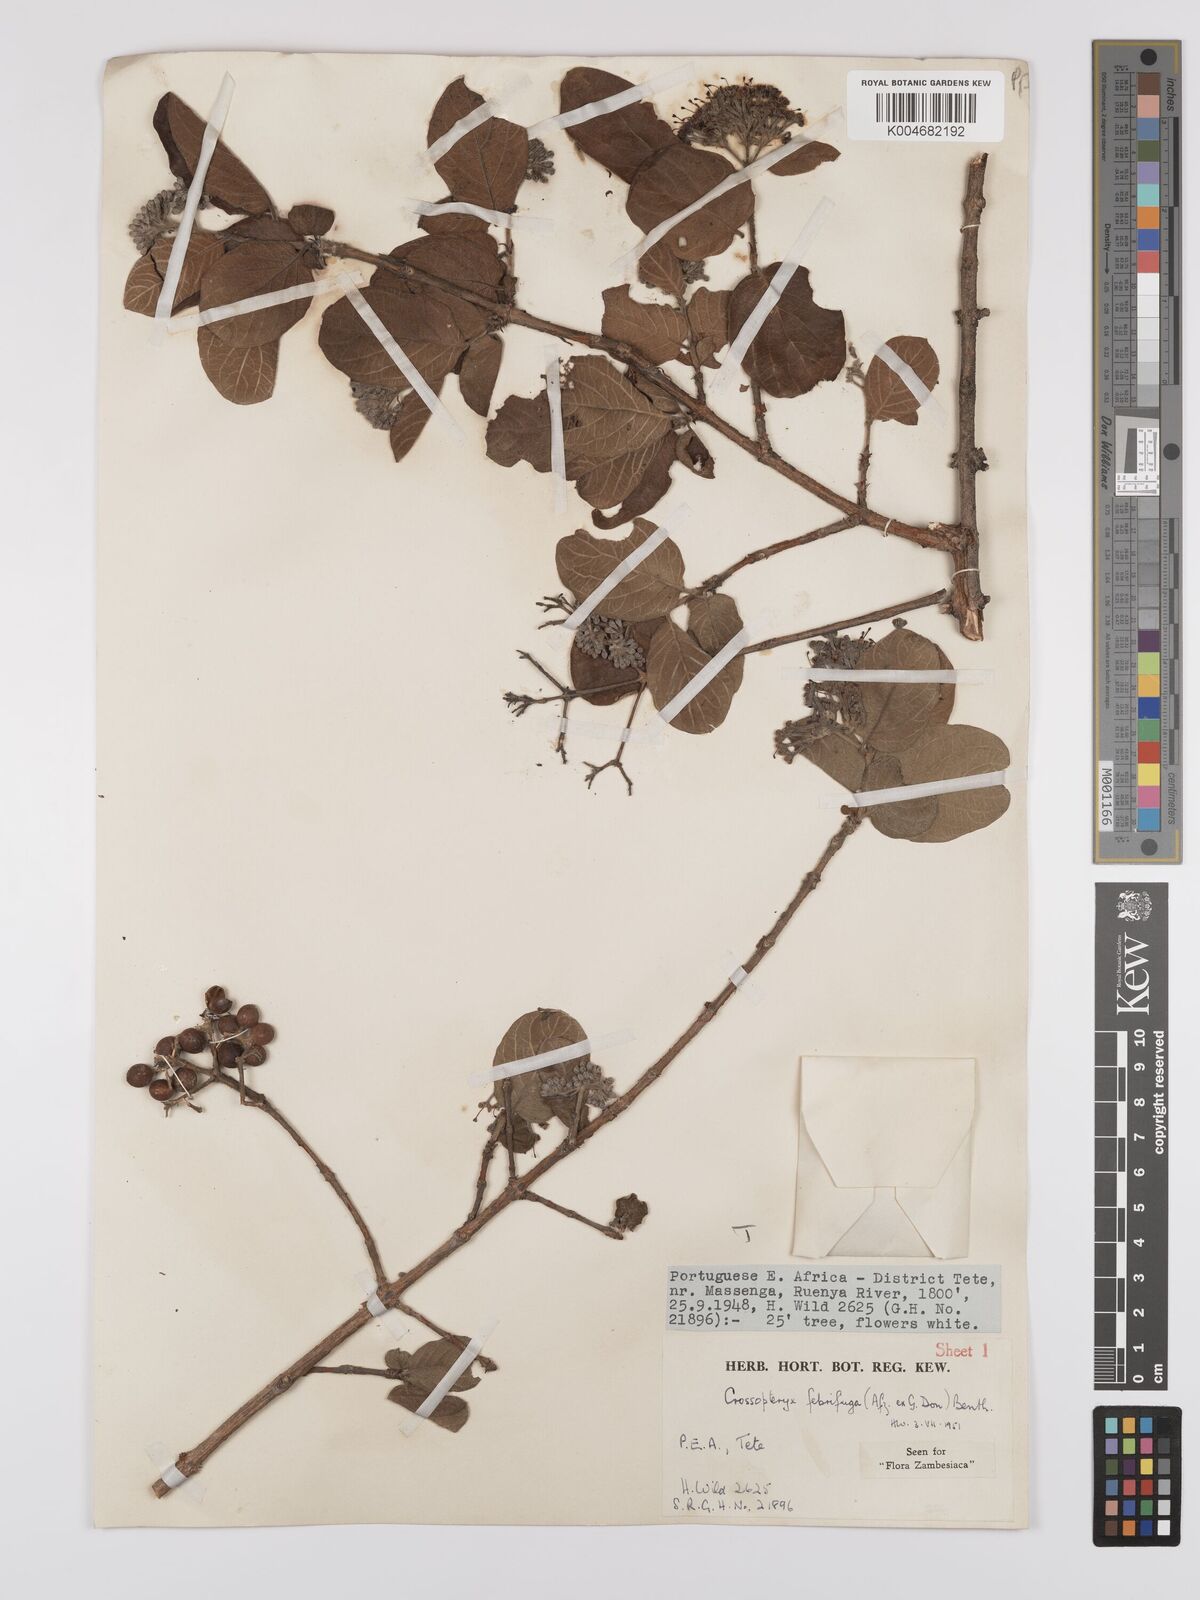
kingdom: Plantae
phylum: Tracheophyta
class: Magnoliopsida
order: Gentianales
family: Rubiaceae
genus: Crossopteryx
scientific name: Crossopteryx febrifuga
